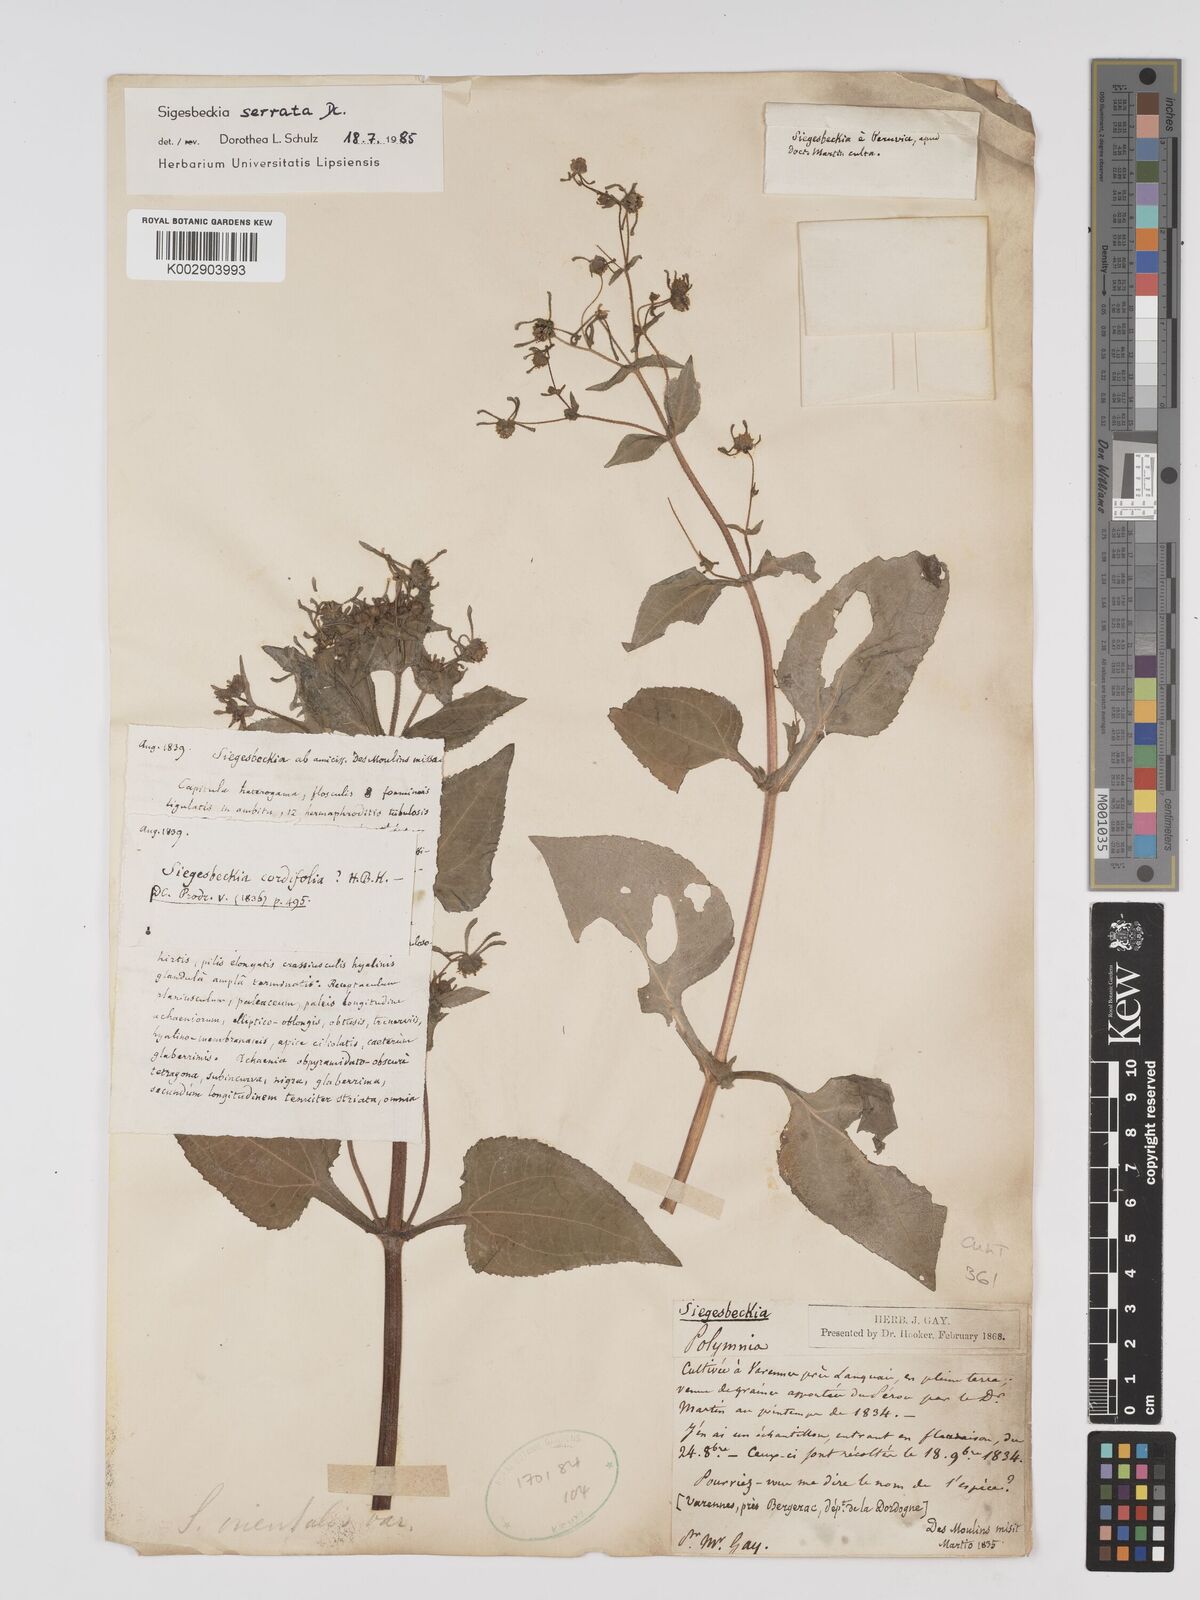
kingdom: Plantae
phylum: Tracheophyta
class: Magnoliopsida
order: Asterales
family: Asteraceae
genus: Sigesbeckia
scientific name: Sigesbeckia jorullensis
